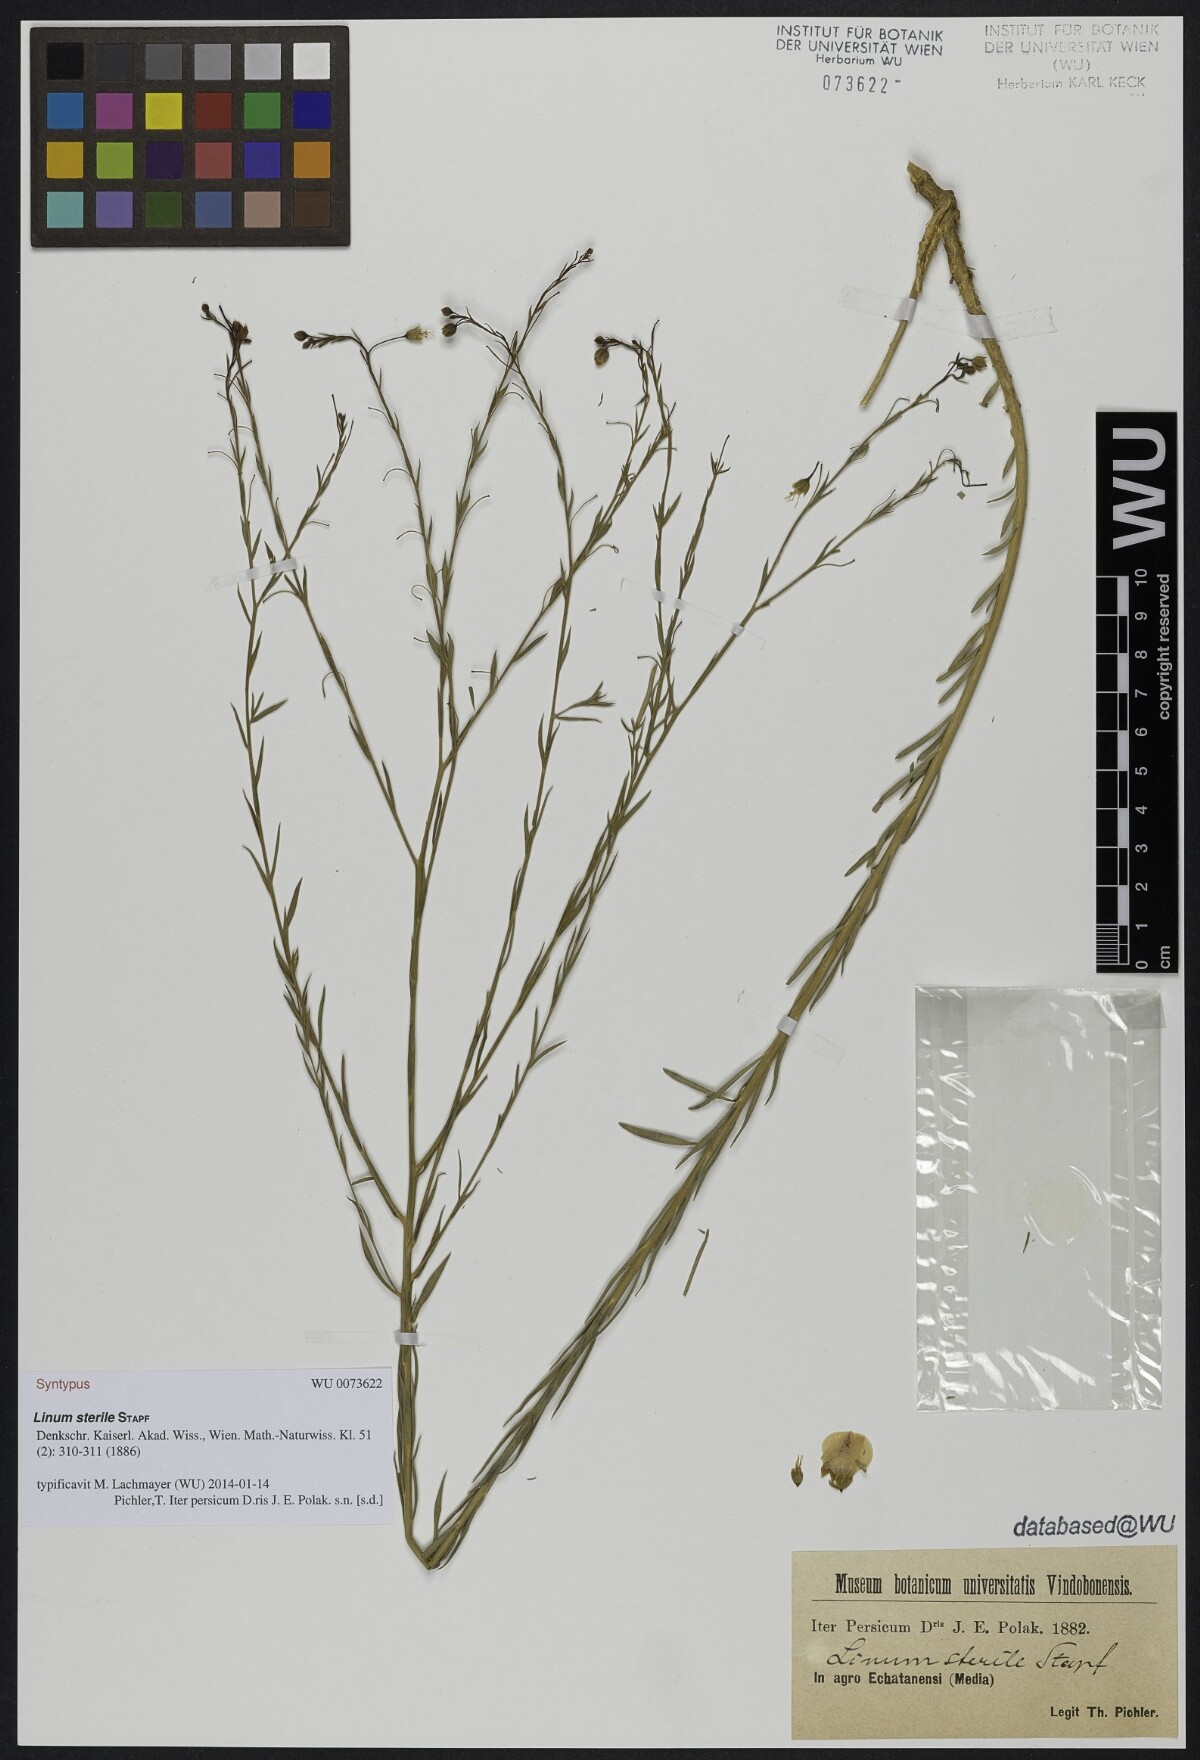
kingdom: Plantae
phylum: Tracheophyta
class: Magnoliopsida
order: Malpighiales
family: Linaceae
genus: Linum
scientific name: Linum glaucum
